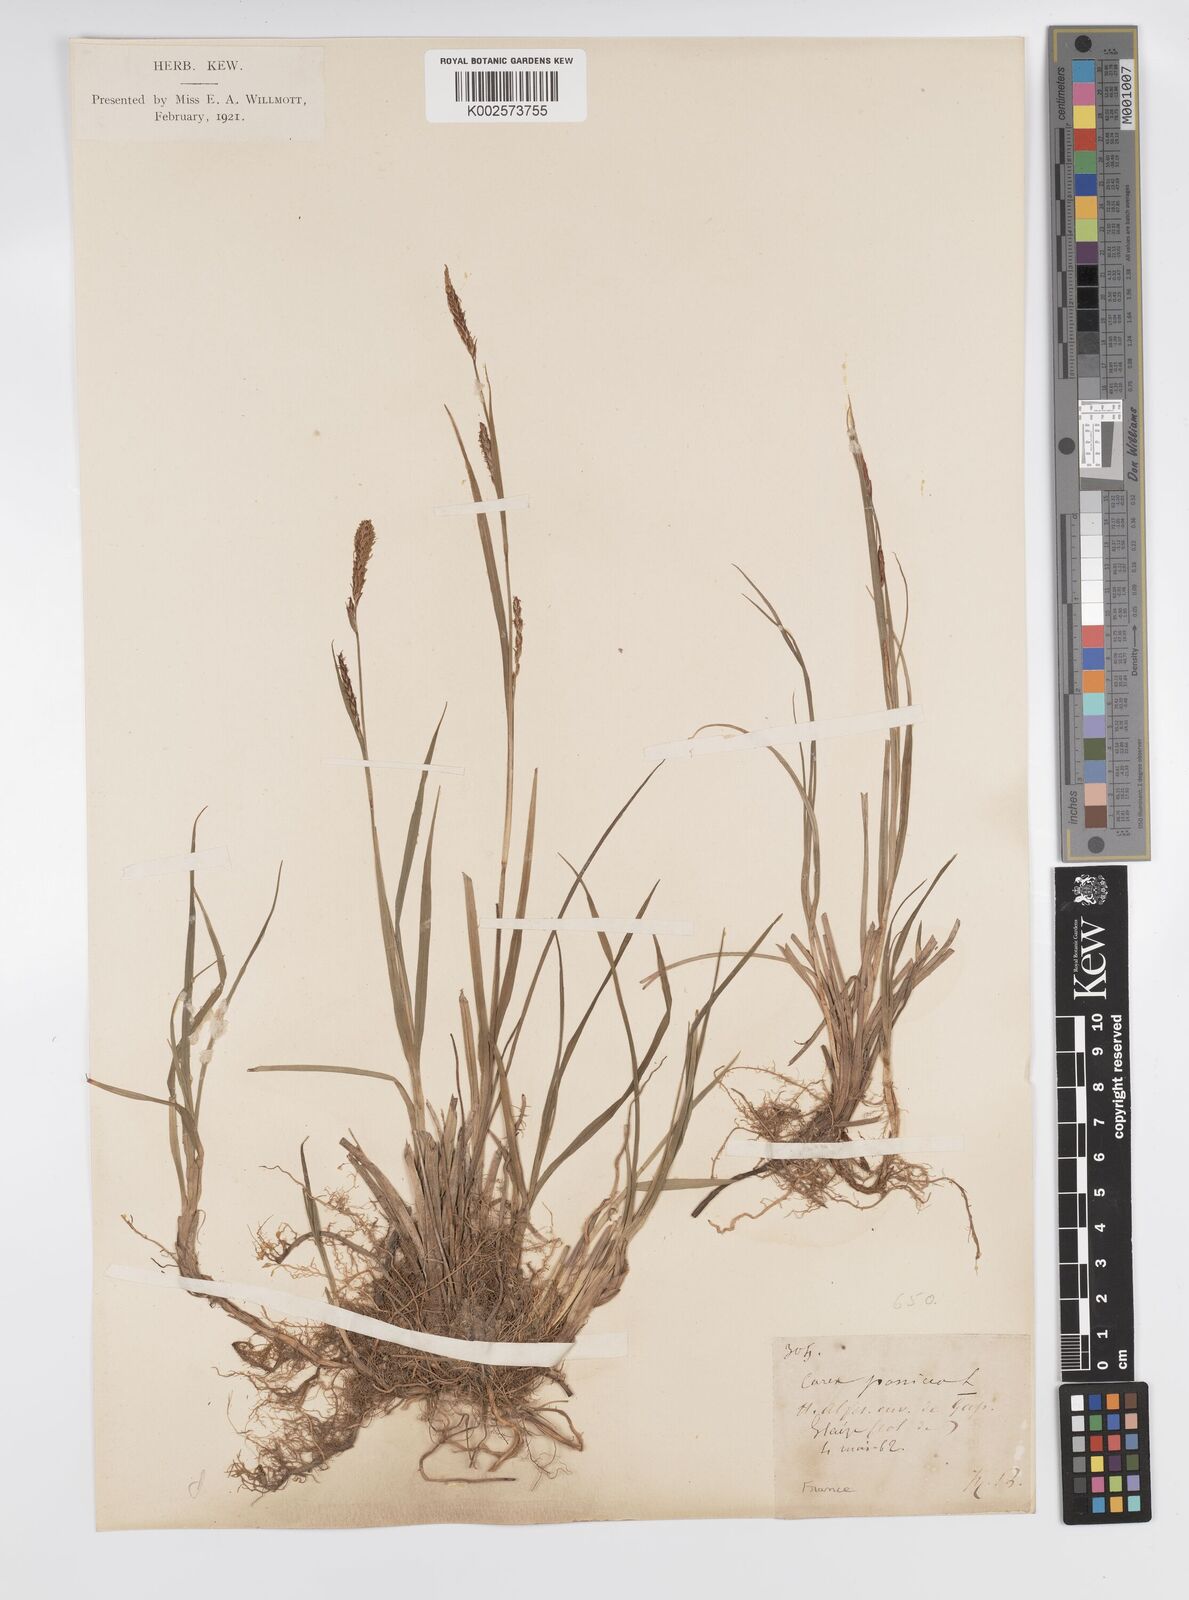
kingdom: Plantae
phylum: Tracheophyta
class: Liliopsida
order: Poales
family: Cyperaceae
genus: Carex
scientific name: Carex panicea
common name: Carnation sedge
